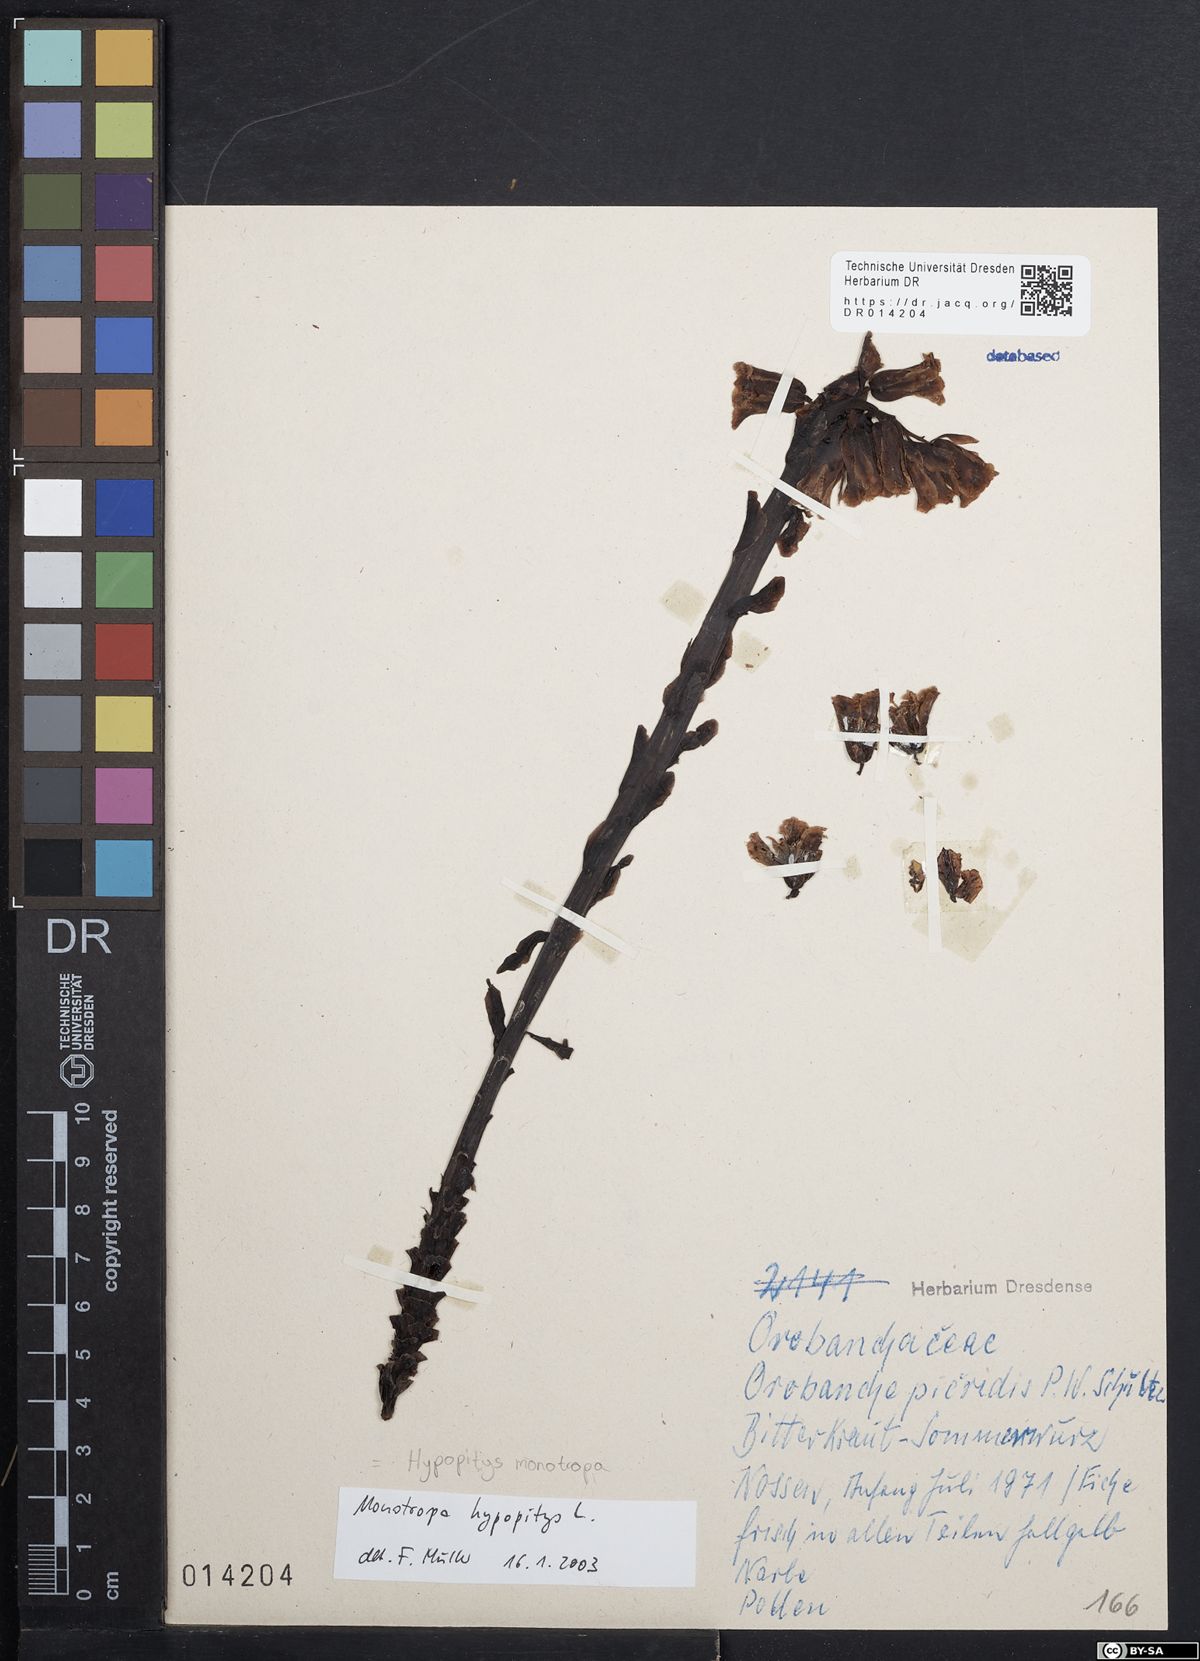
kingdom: Plantae
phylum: Tracheophyta
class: Magnoliopsida
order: Ericales
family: Ericaceae
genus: Hypopitys
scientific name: Hypopitys monotropa
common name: Yellow bird's-nest
